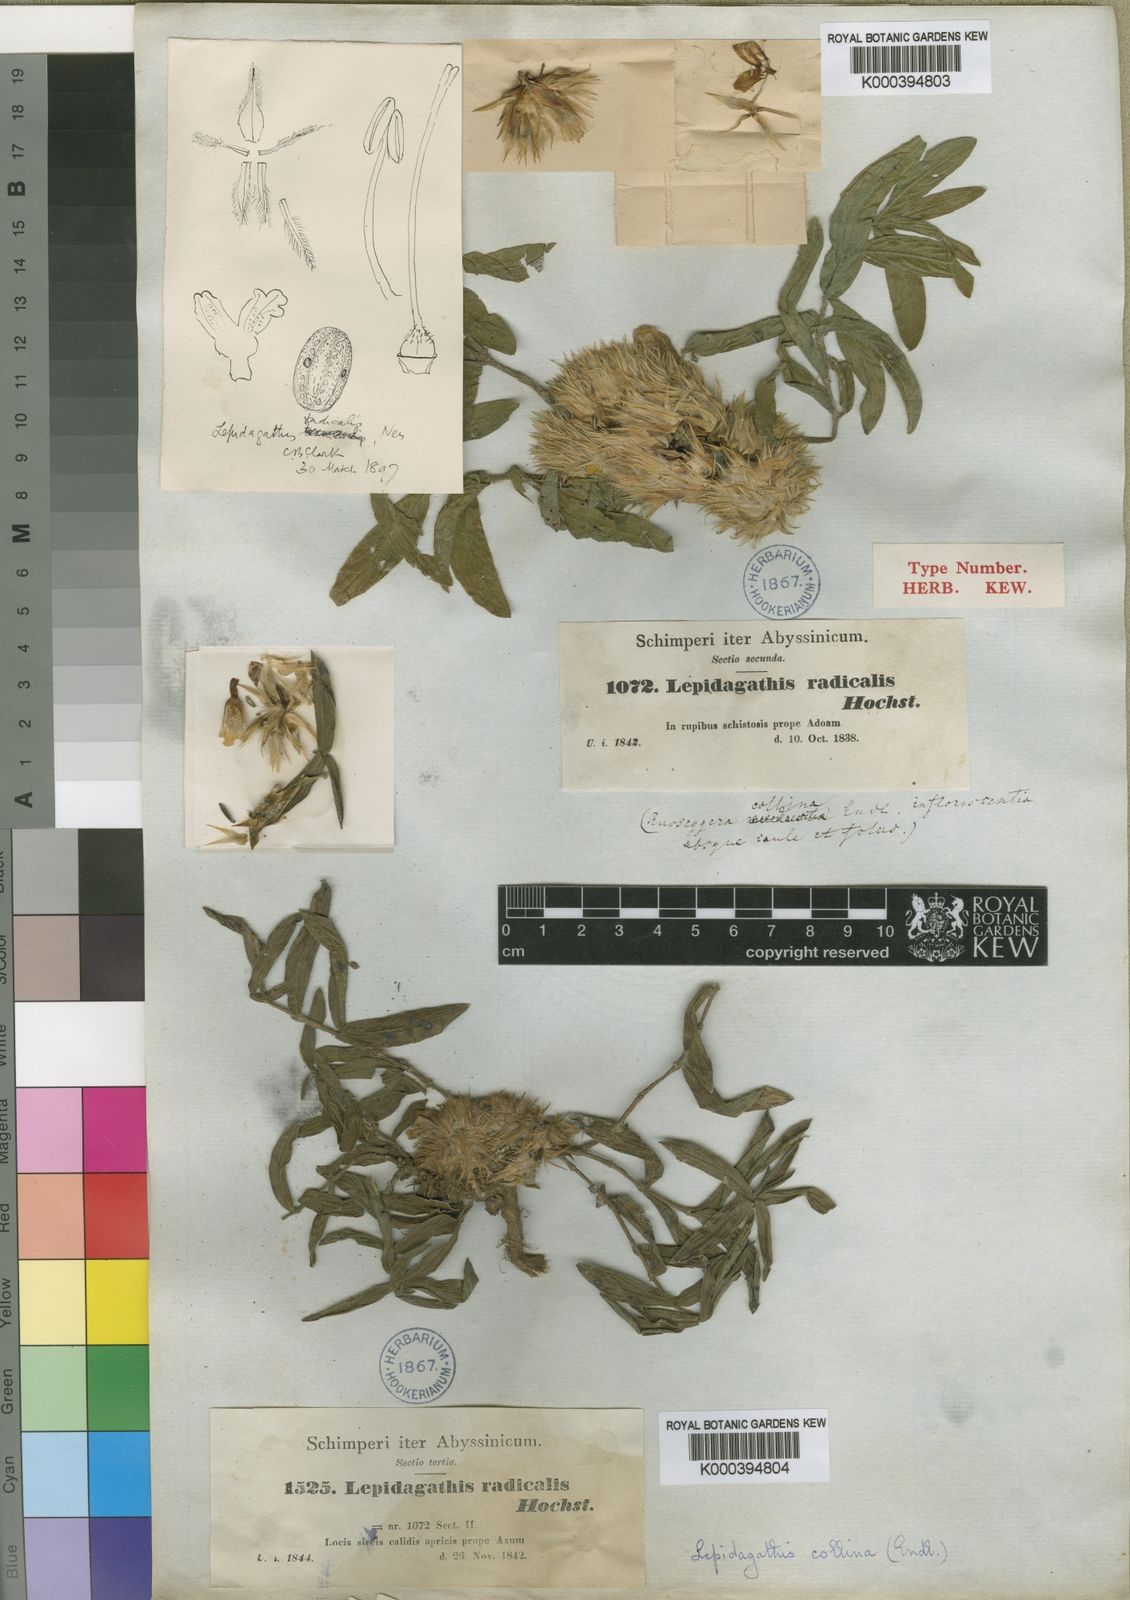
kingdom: Plantae
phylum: Tracheophyta
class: Magnoliopsida
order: Lamiales
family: Acanthaceae
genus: Lepidagathis
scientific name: Lepidagathis collina
